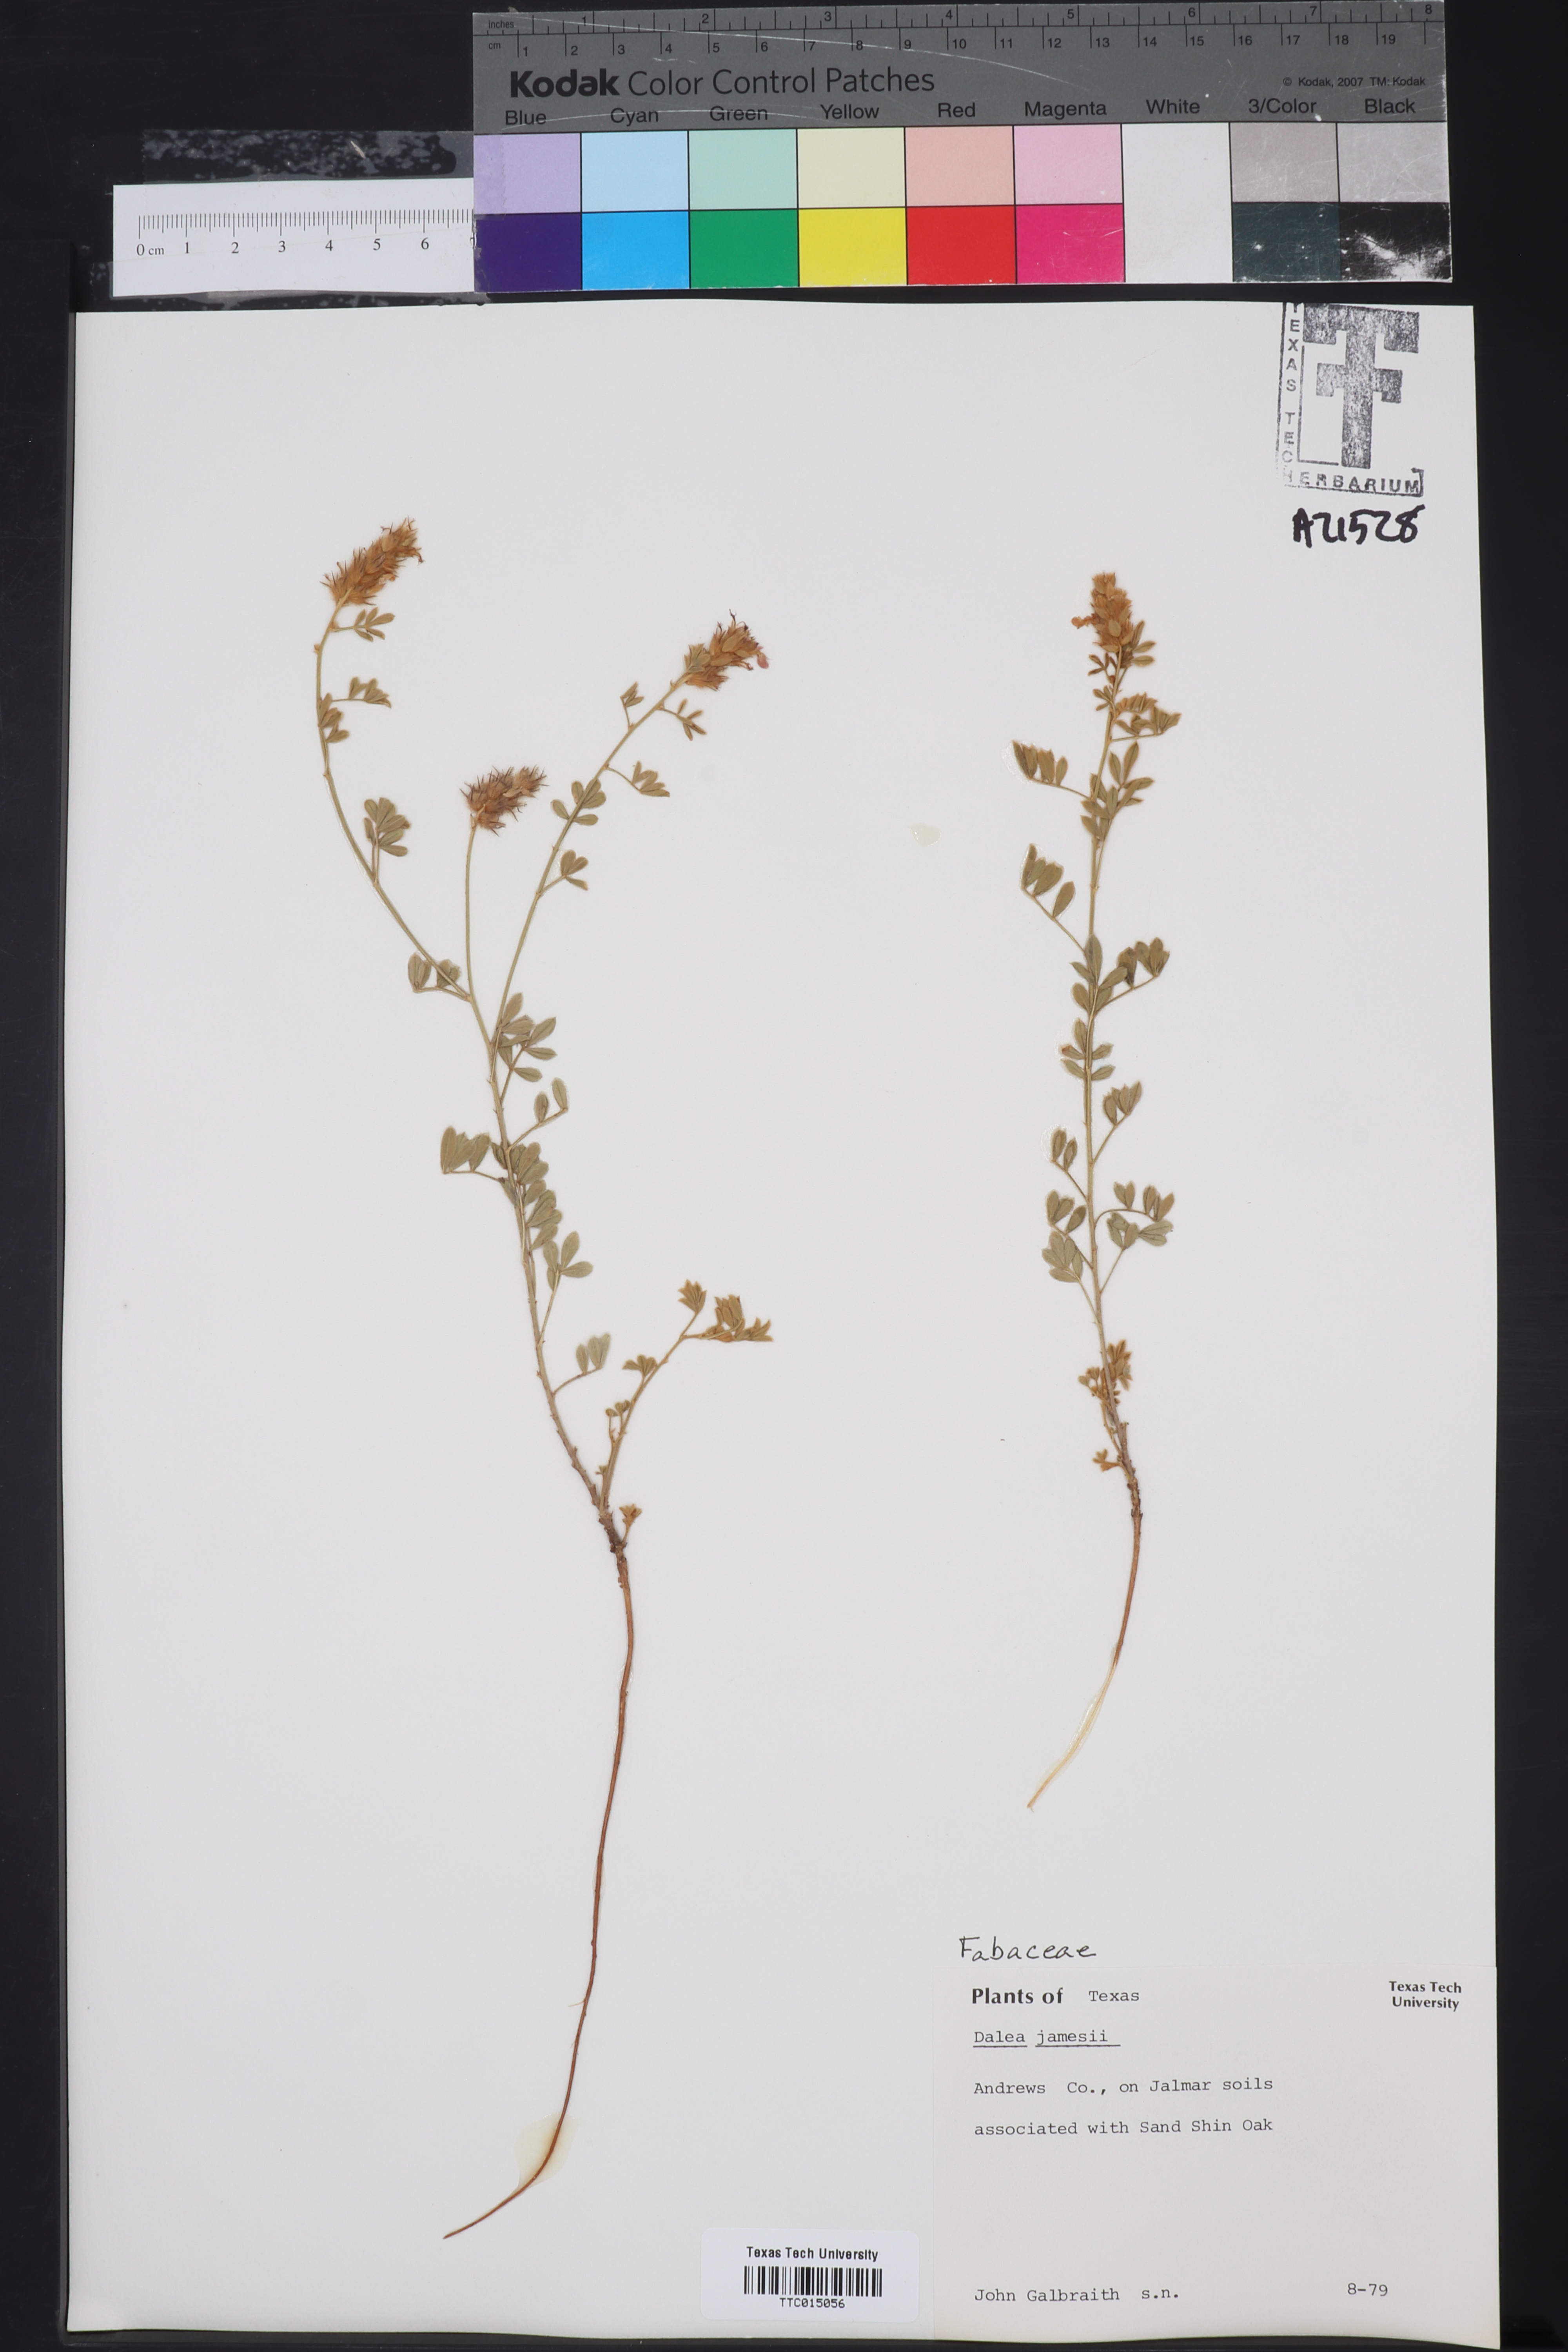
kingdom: Plantae
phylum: Tracheophyta
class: Magnoliopsida
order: Fabales
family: Fabaceae
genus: Dalea
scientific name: Dalea jamesii
